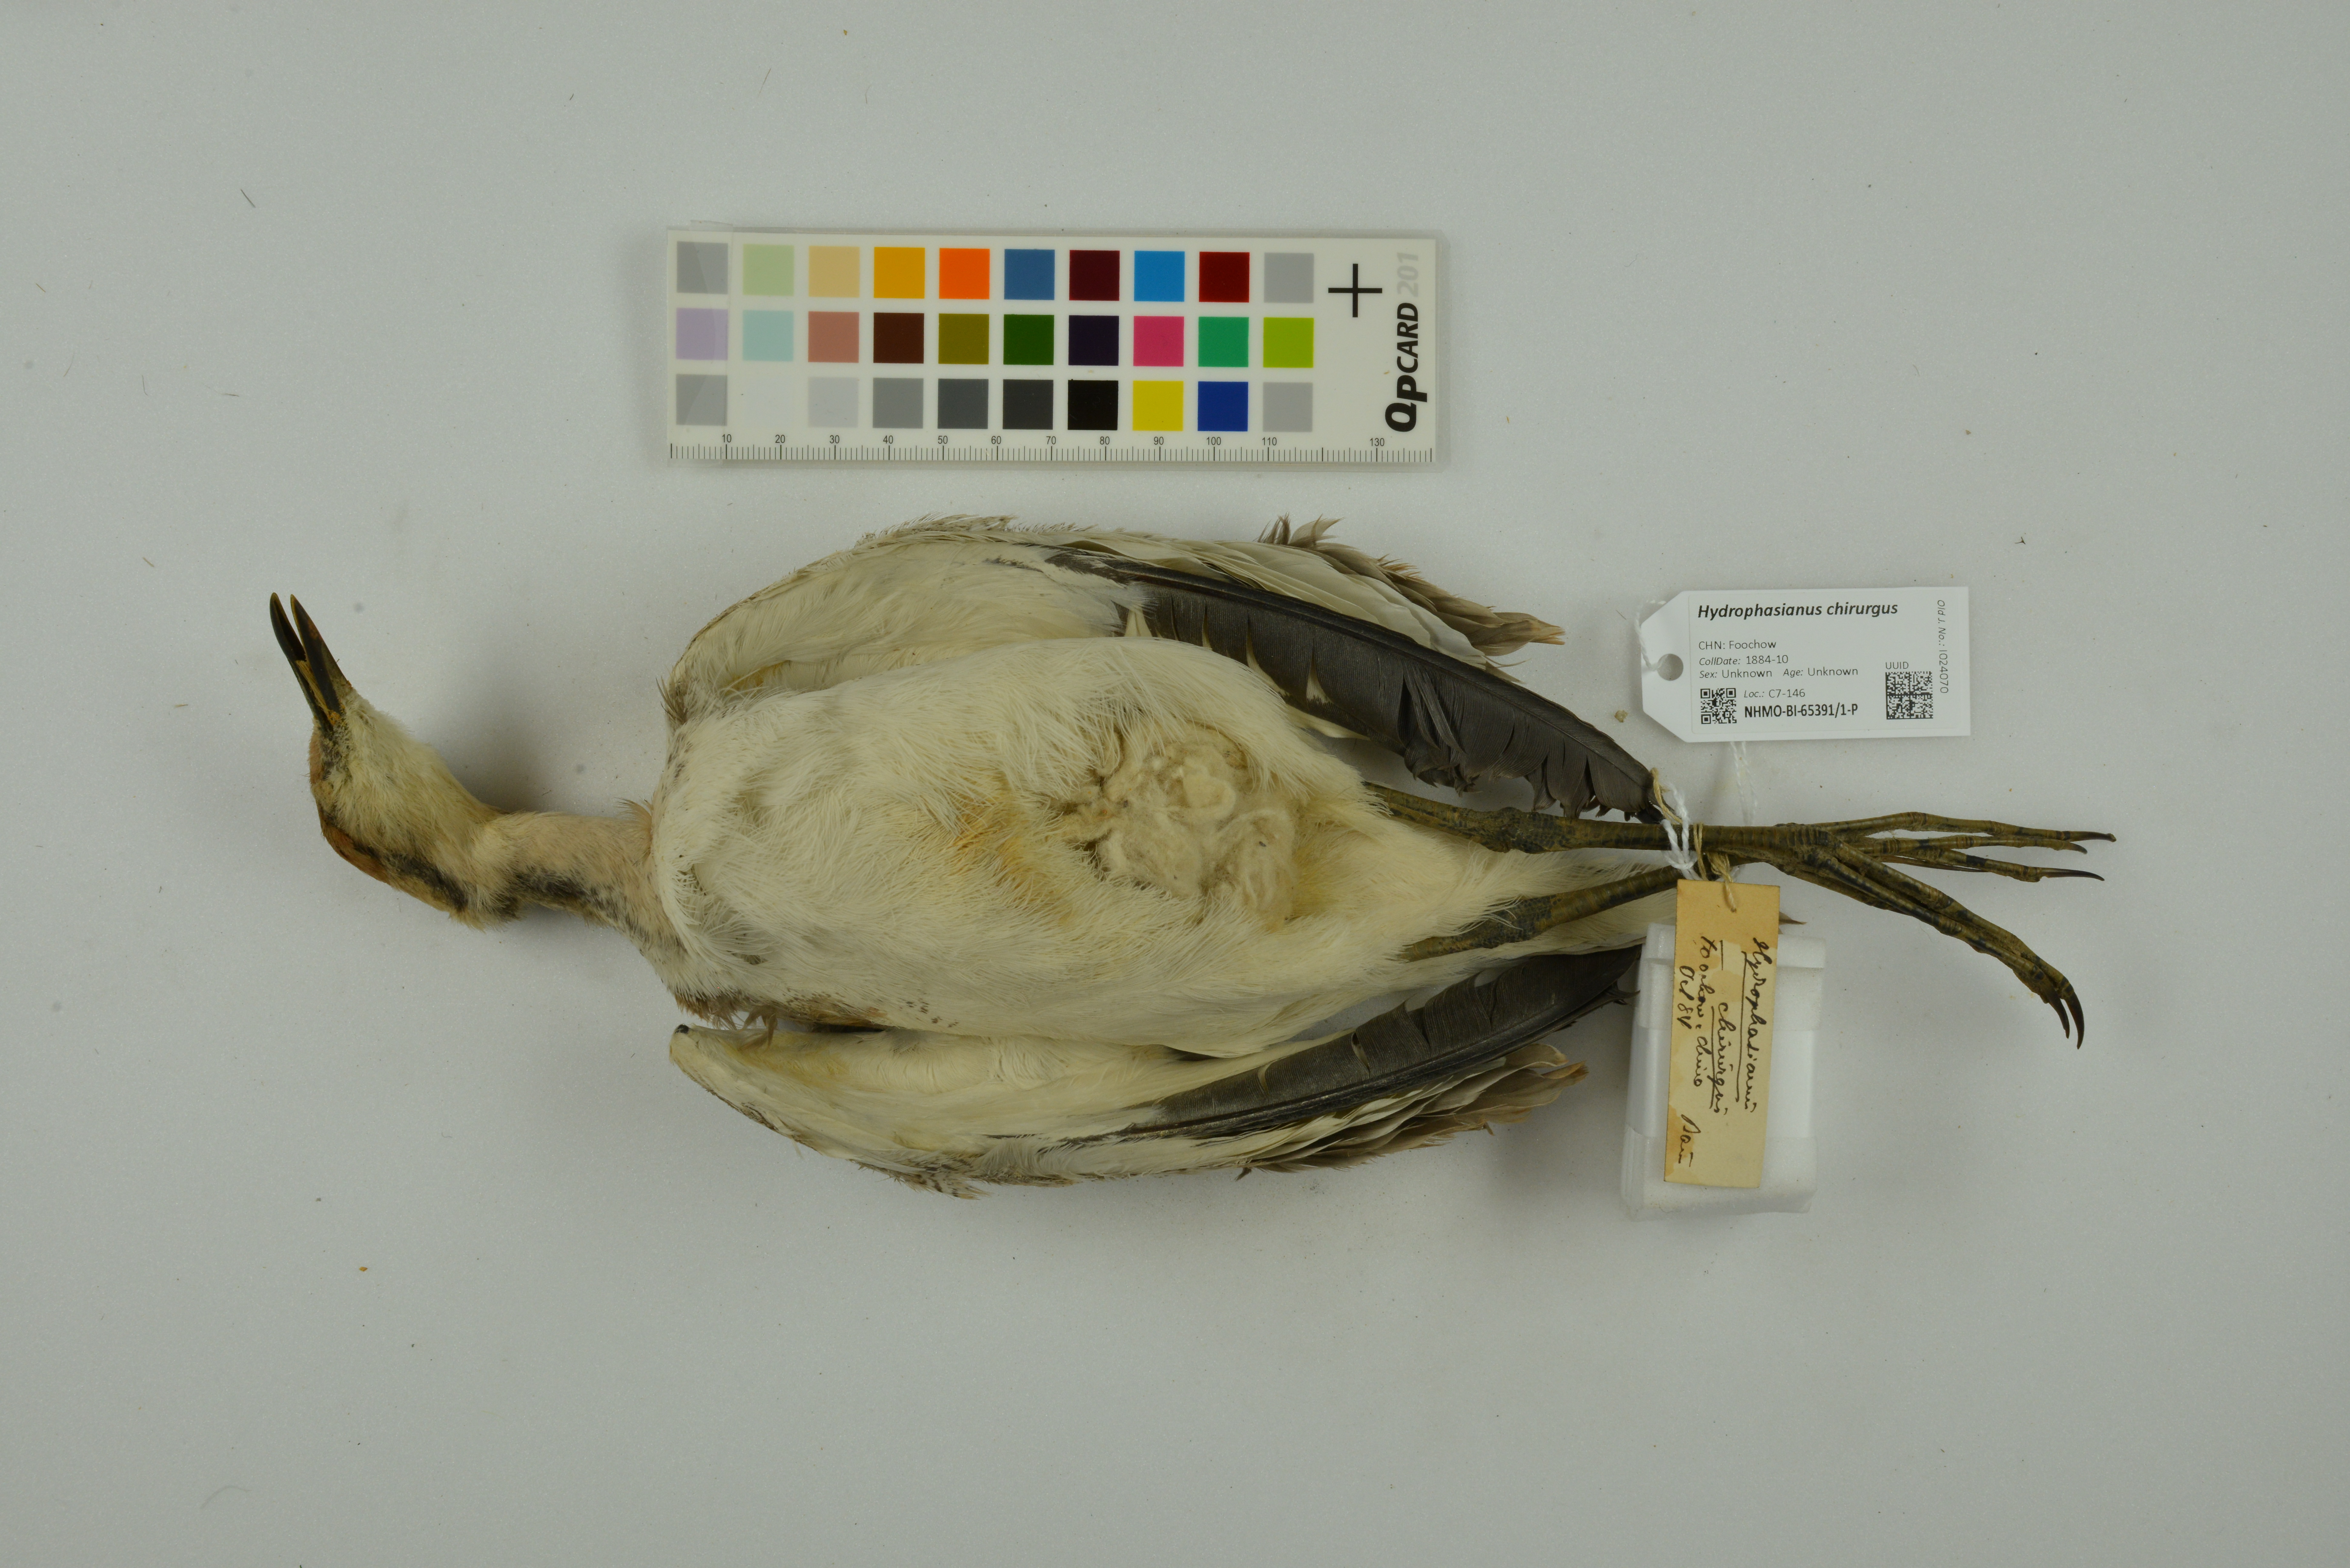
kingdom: Animalia
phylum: Chordata
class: Aves
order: Charadriiformes
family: Jacanidae
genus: Hydrophasianus
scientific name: Hydrophasianus chirurgus
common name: Pheasant-tailed jacana
